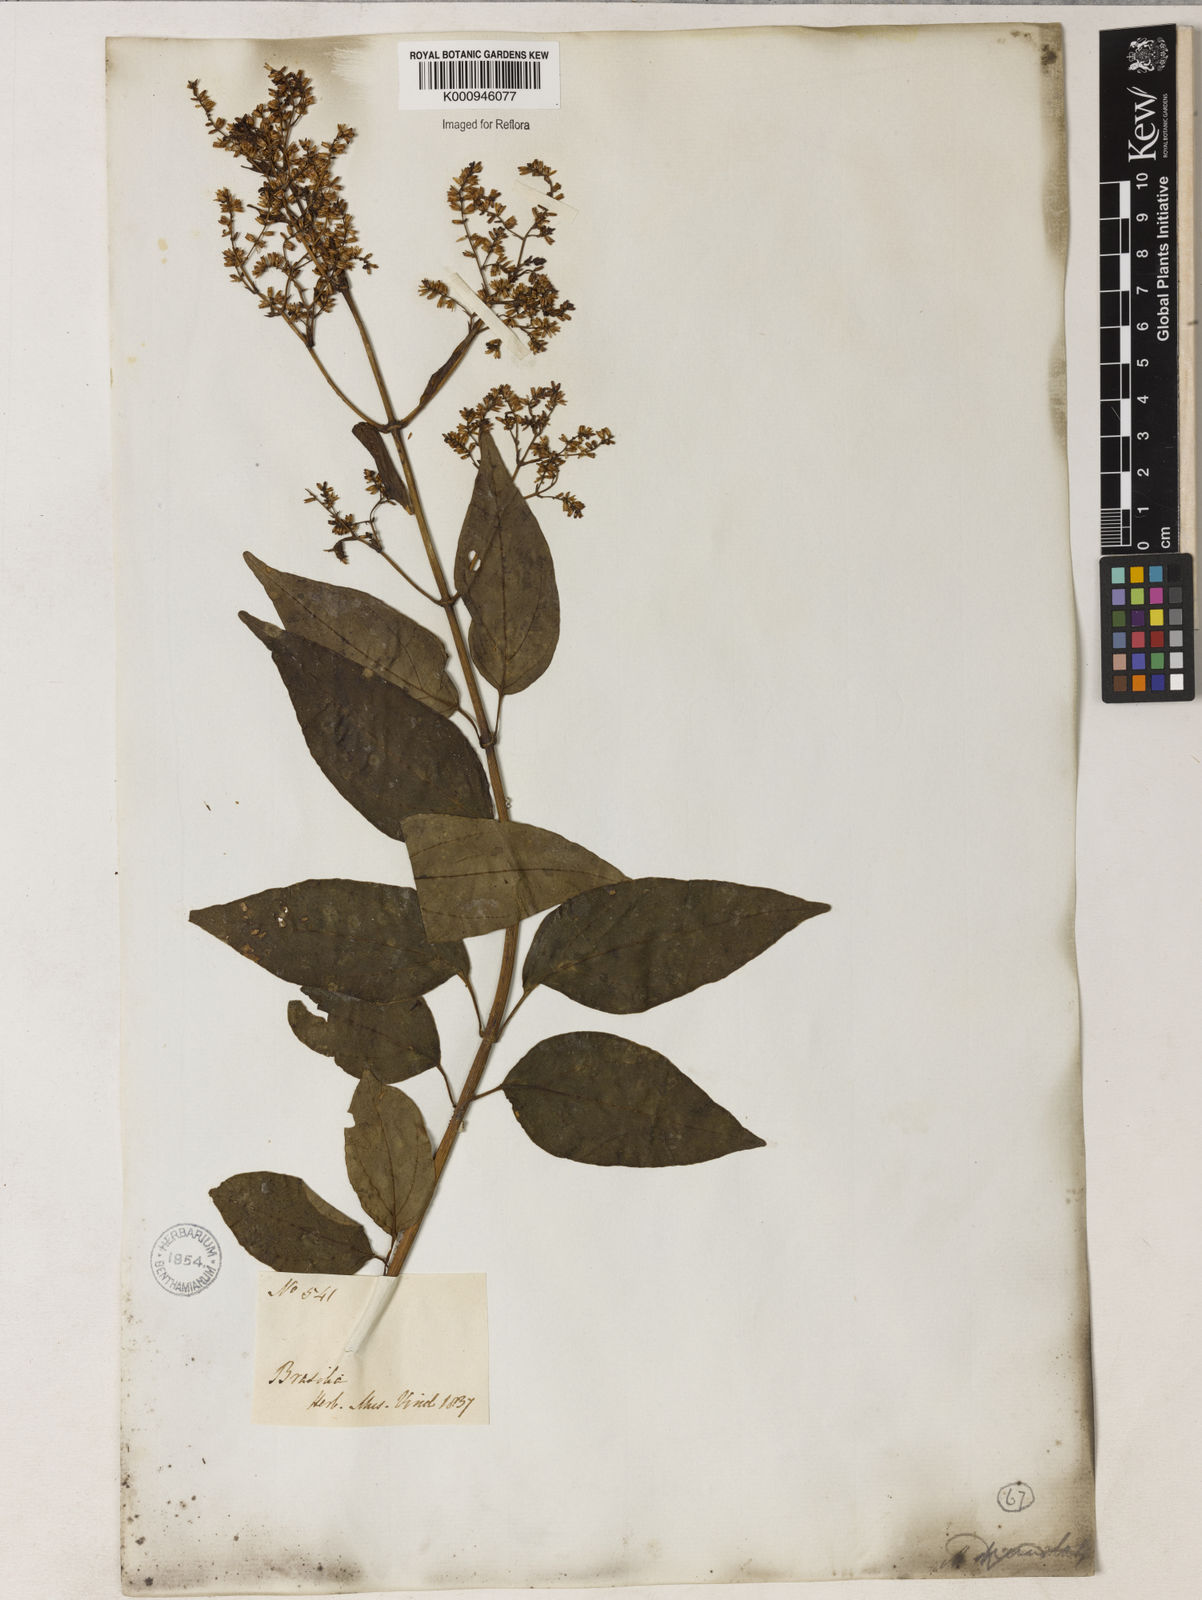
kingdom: Plantae
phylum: Tracheophyta
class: Magnoliopsida
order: Asterales
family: Asteraceae
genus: Mikania
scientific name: Mikania nigricans
